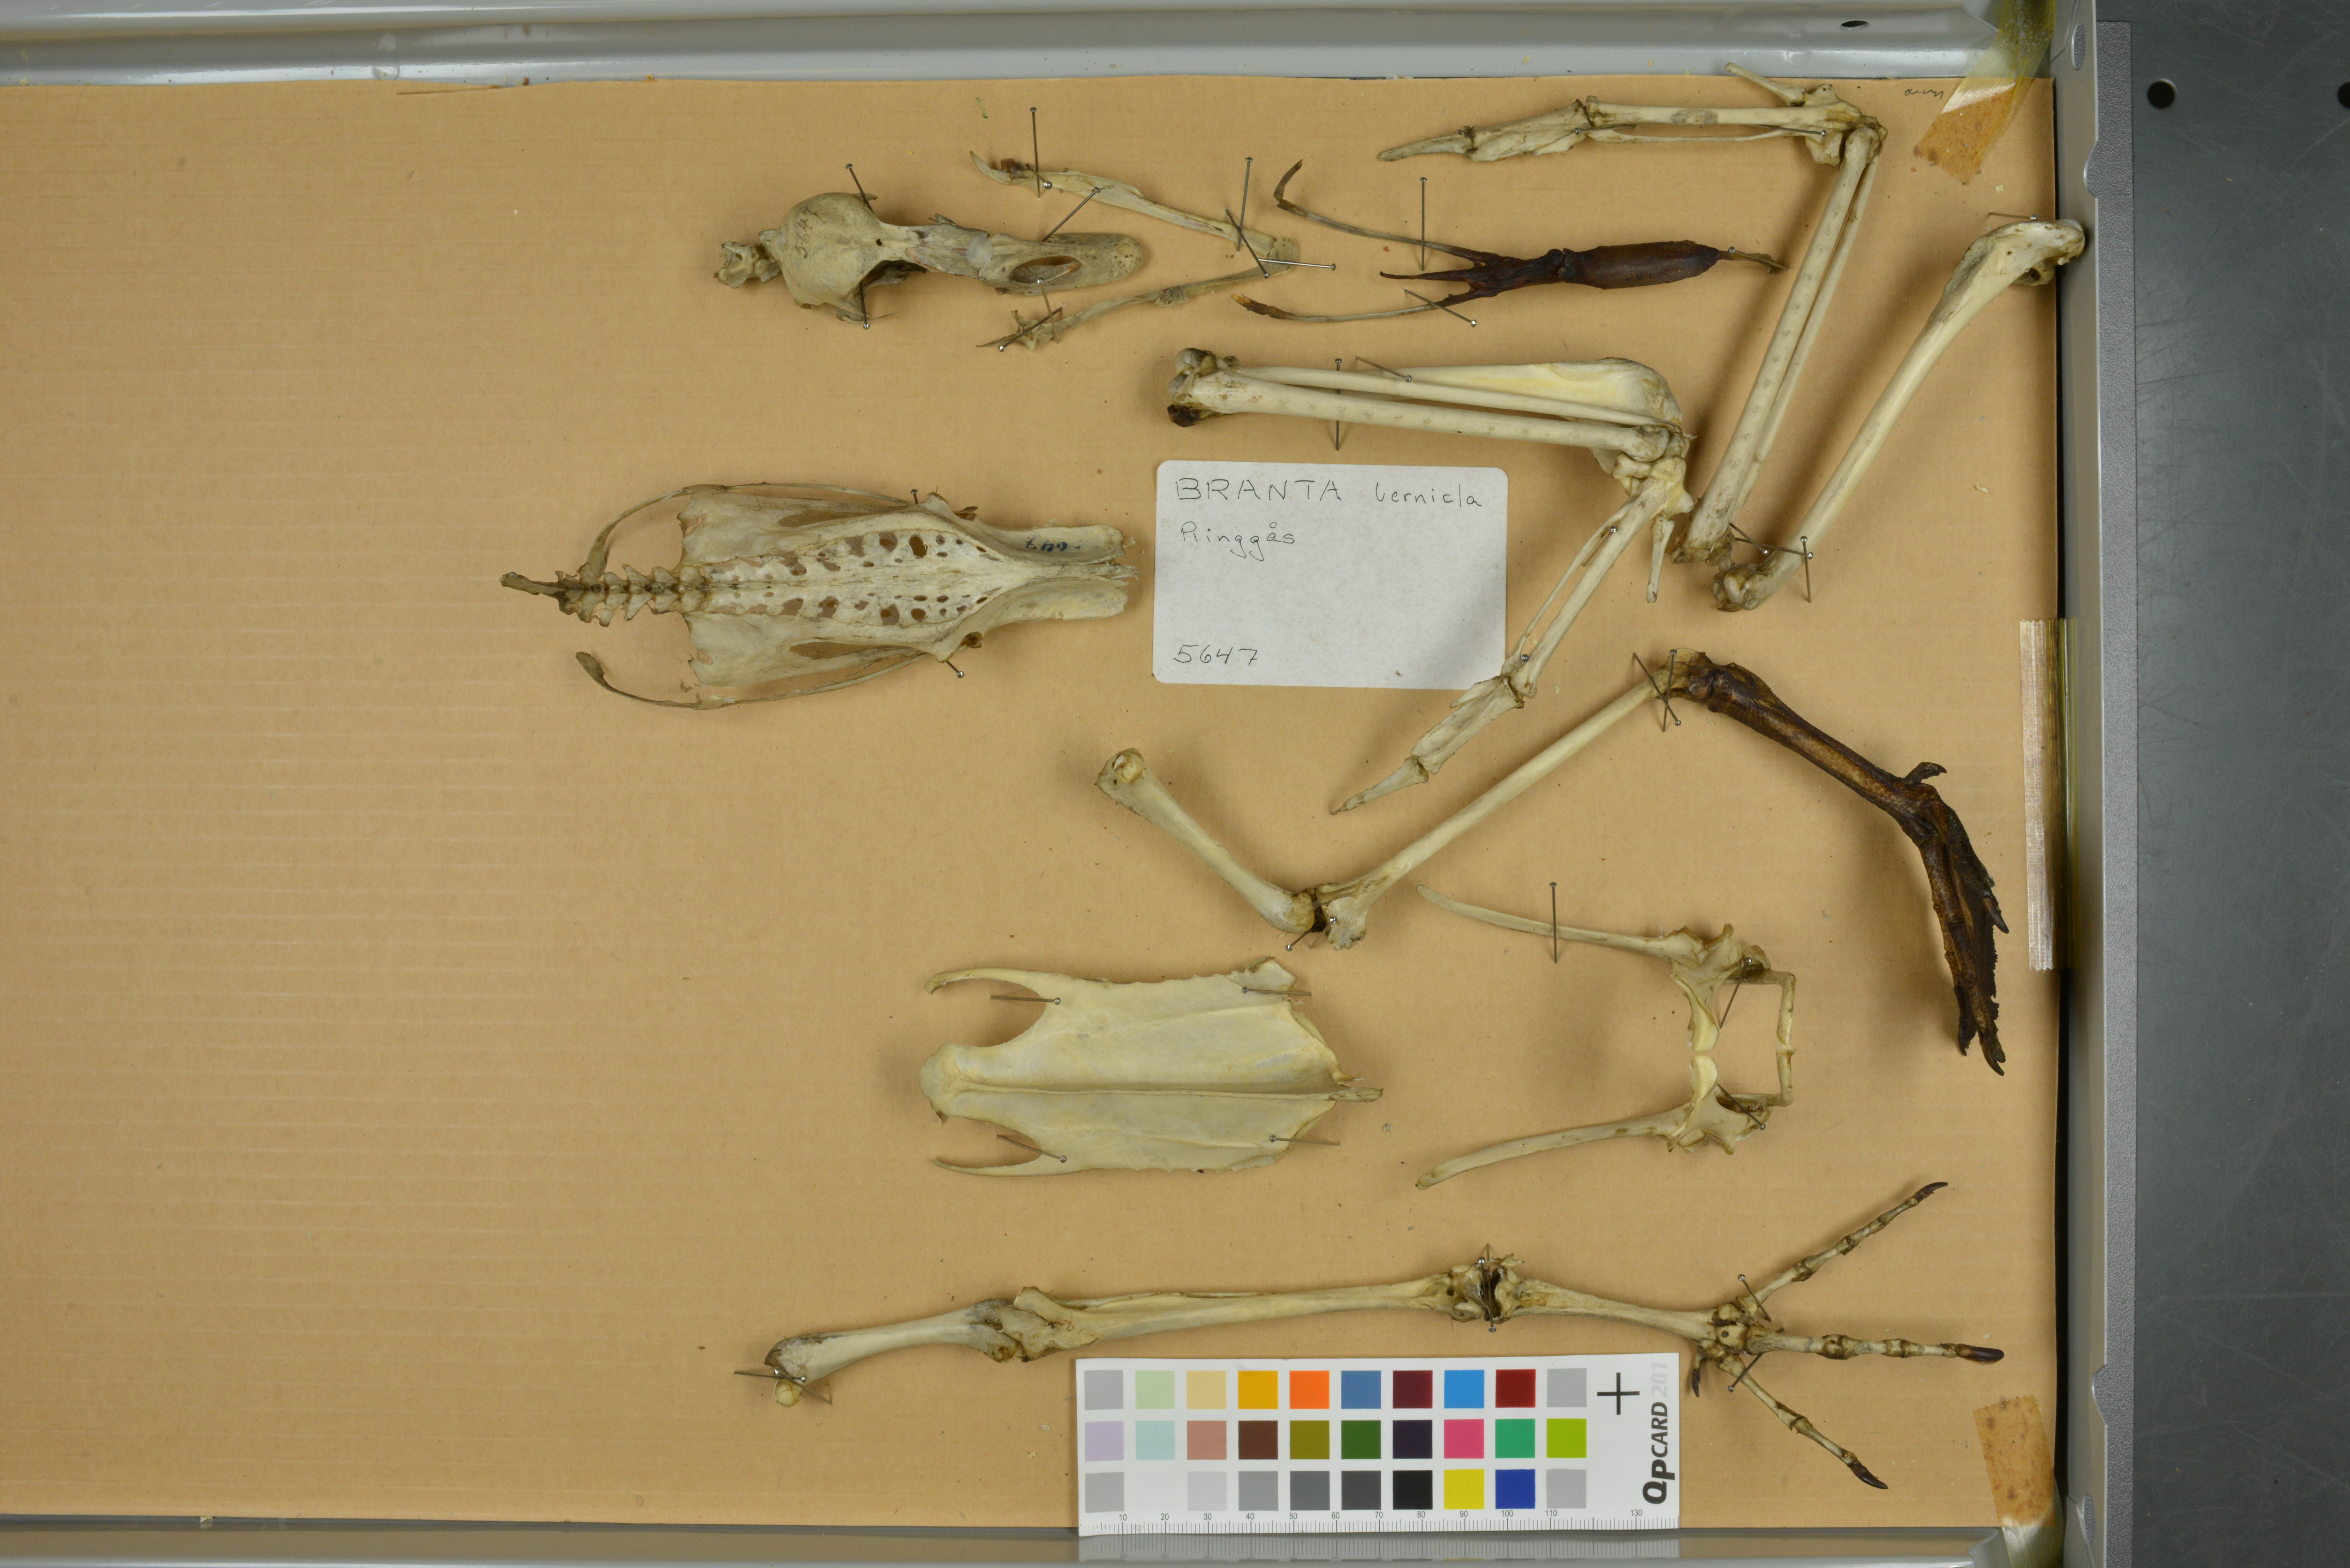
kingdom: Animalia
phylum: Chordata
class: Aves
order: Anseriformes
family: Anatidae
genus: Branta
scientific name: Branta bernicla
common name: Brant goose
